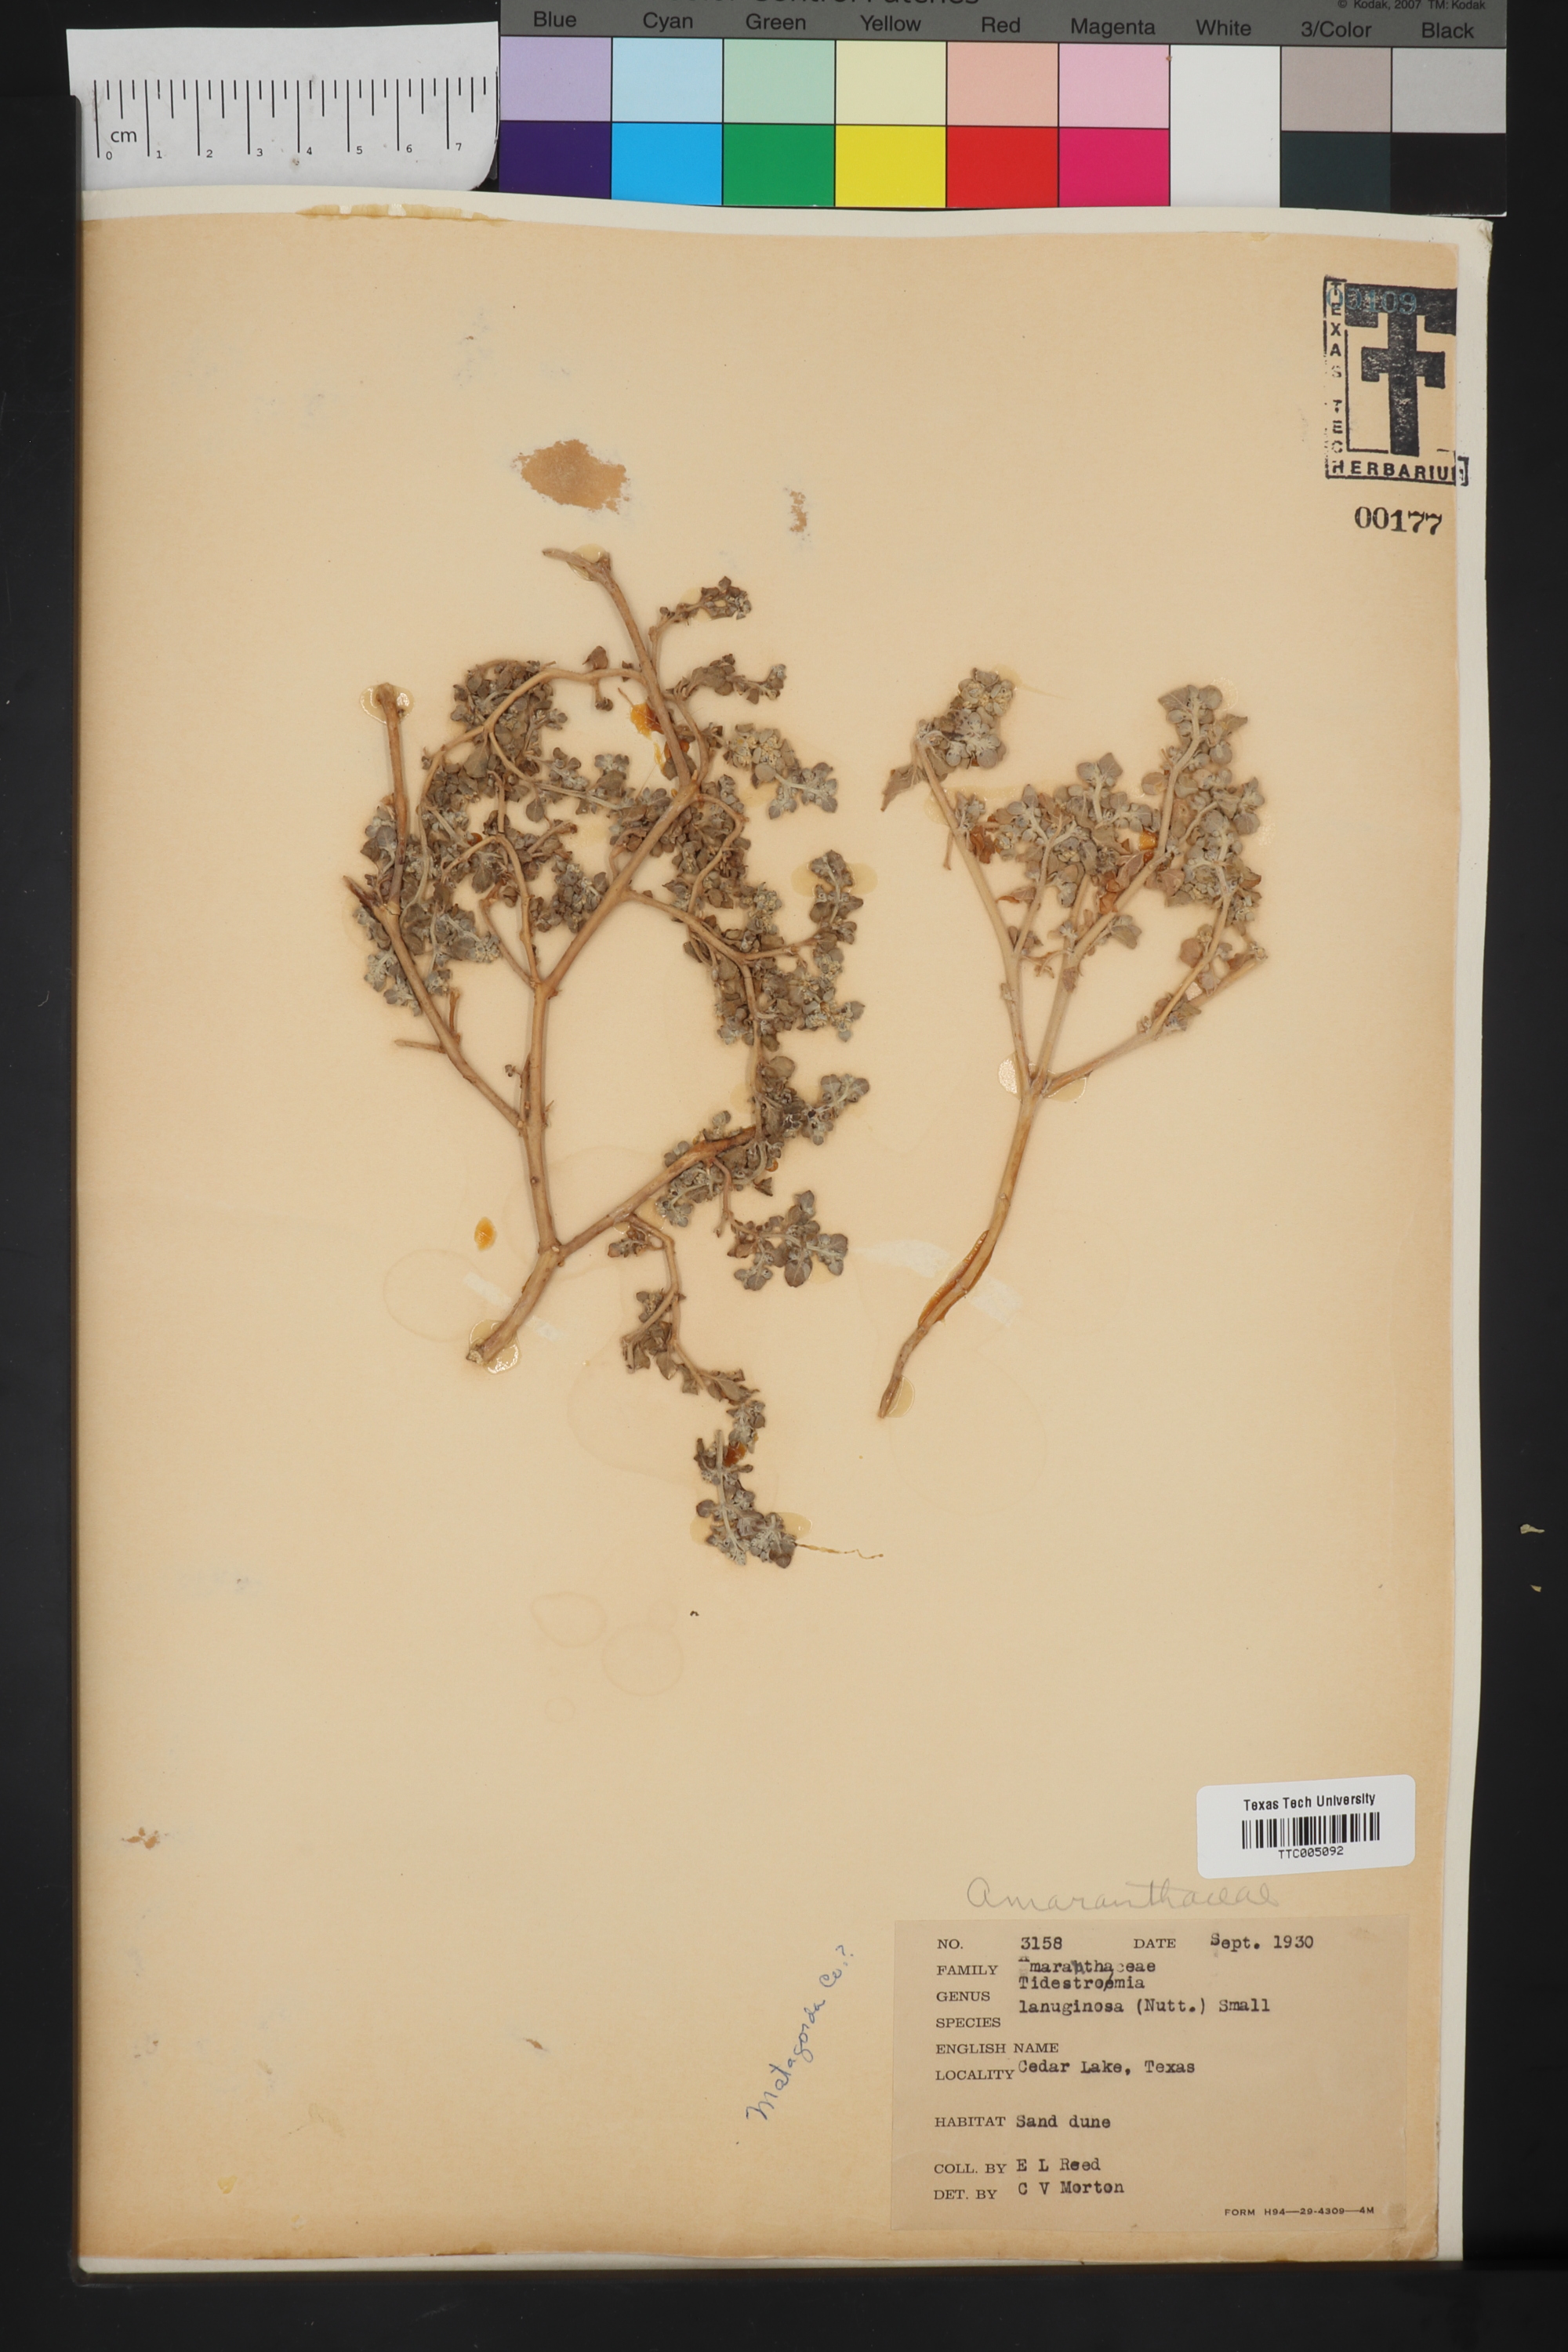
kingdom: Plantae
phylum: Tracheophyta
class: Magnoliopsida
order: Caryophyllales
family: Amaranthaceae
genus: Tidestromia
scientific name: Tidestromia lanuginosa
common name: Woolly tidestromia
